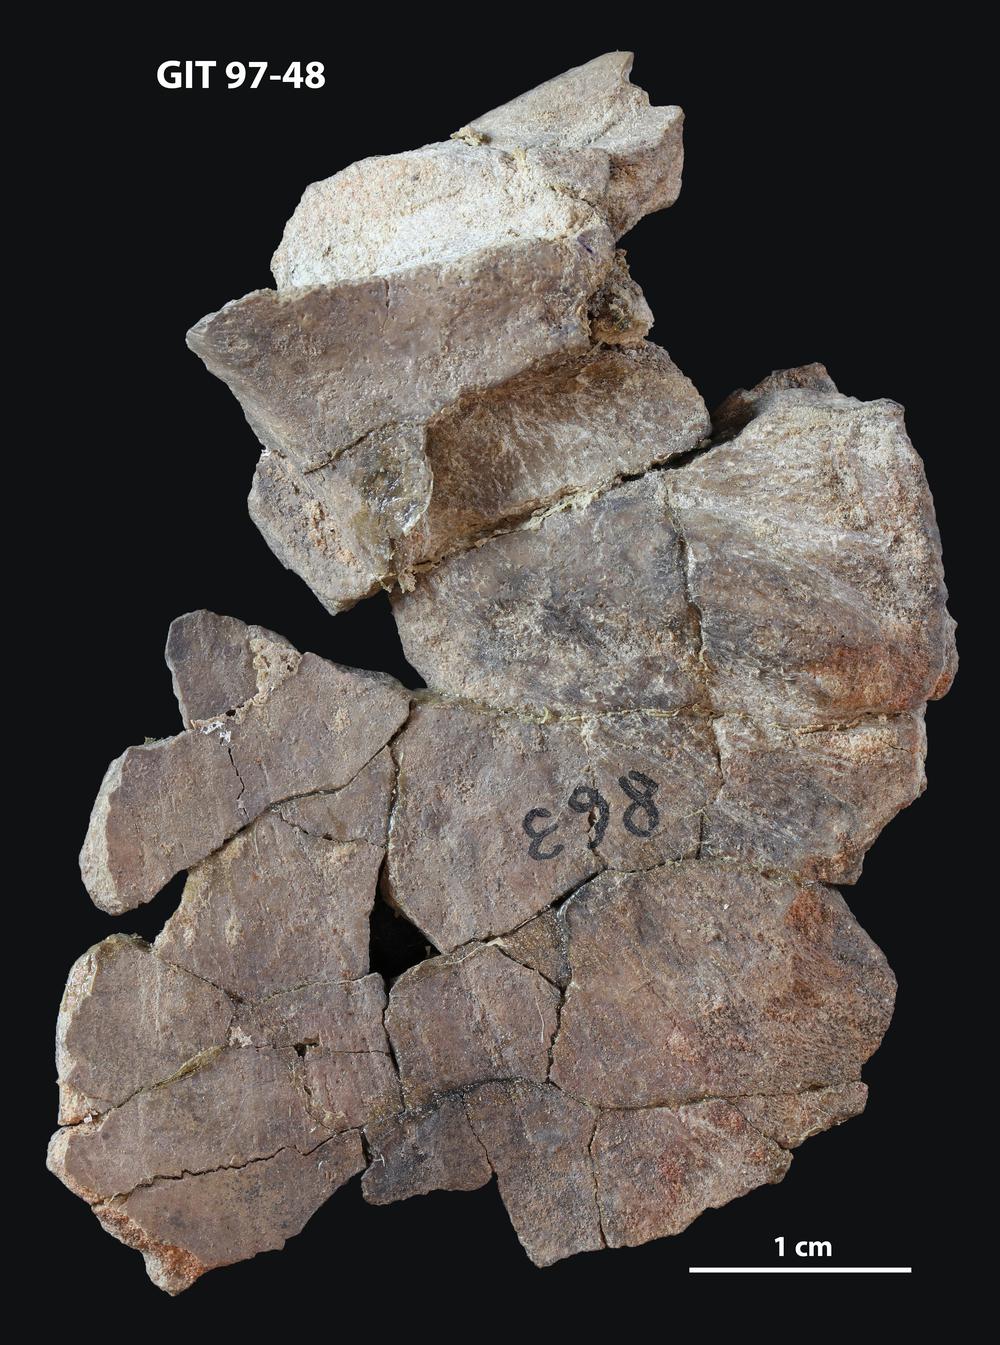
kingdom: Animalia
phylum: Chordata
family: Holonematidae
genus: Holonema
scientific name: Holonema
